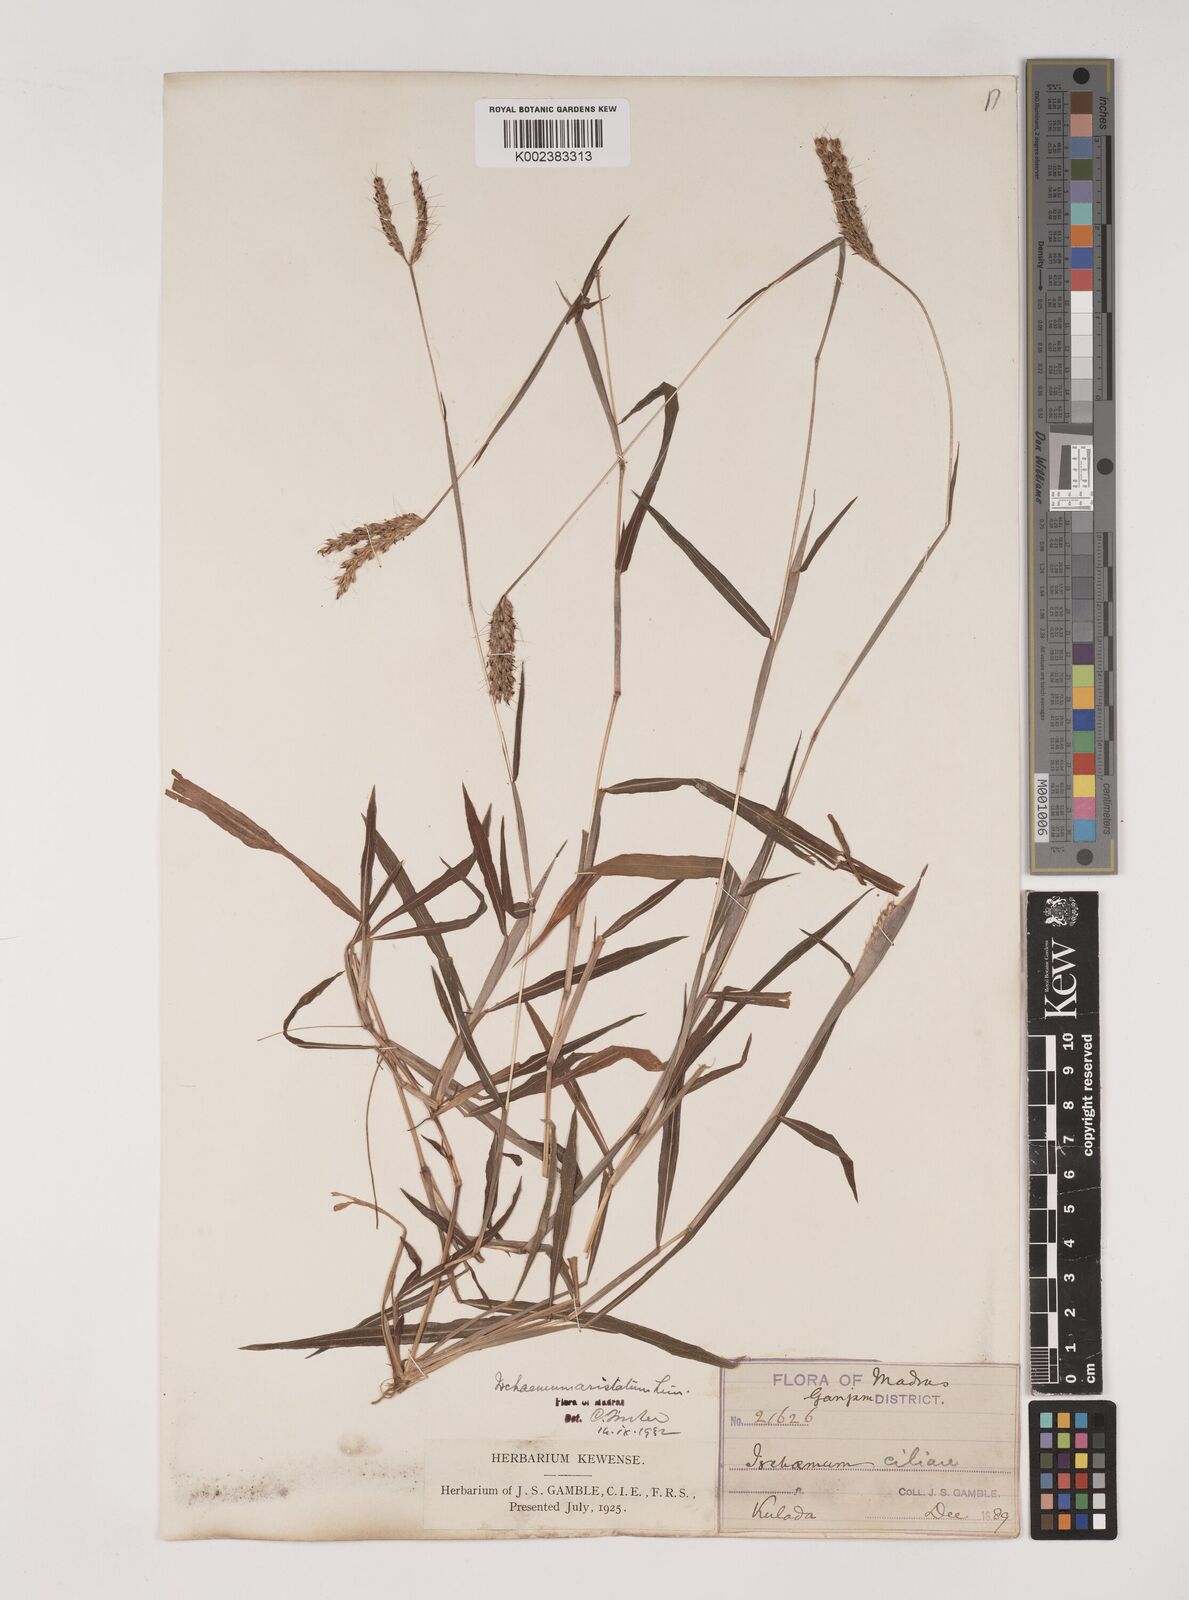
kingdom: Plantae
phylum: Tracheophyta
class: Liliopsida
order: Poales
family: Poaceae
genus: Polytrias
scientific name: Polytrias indica
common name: Indian murainagrass
